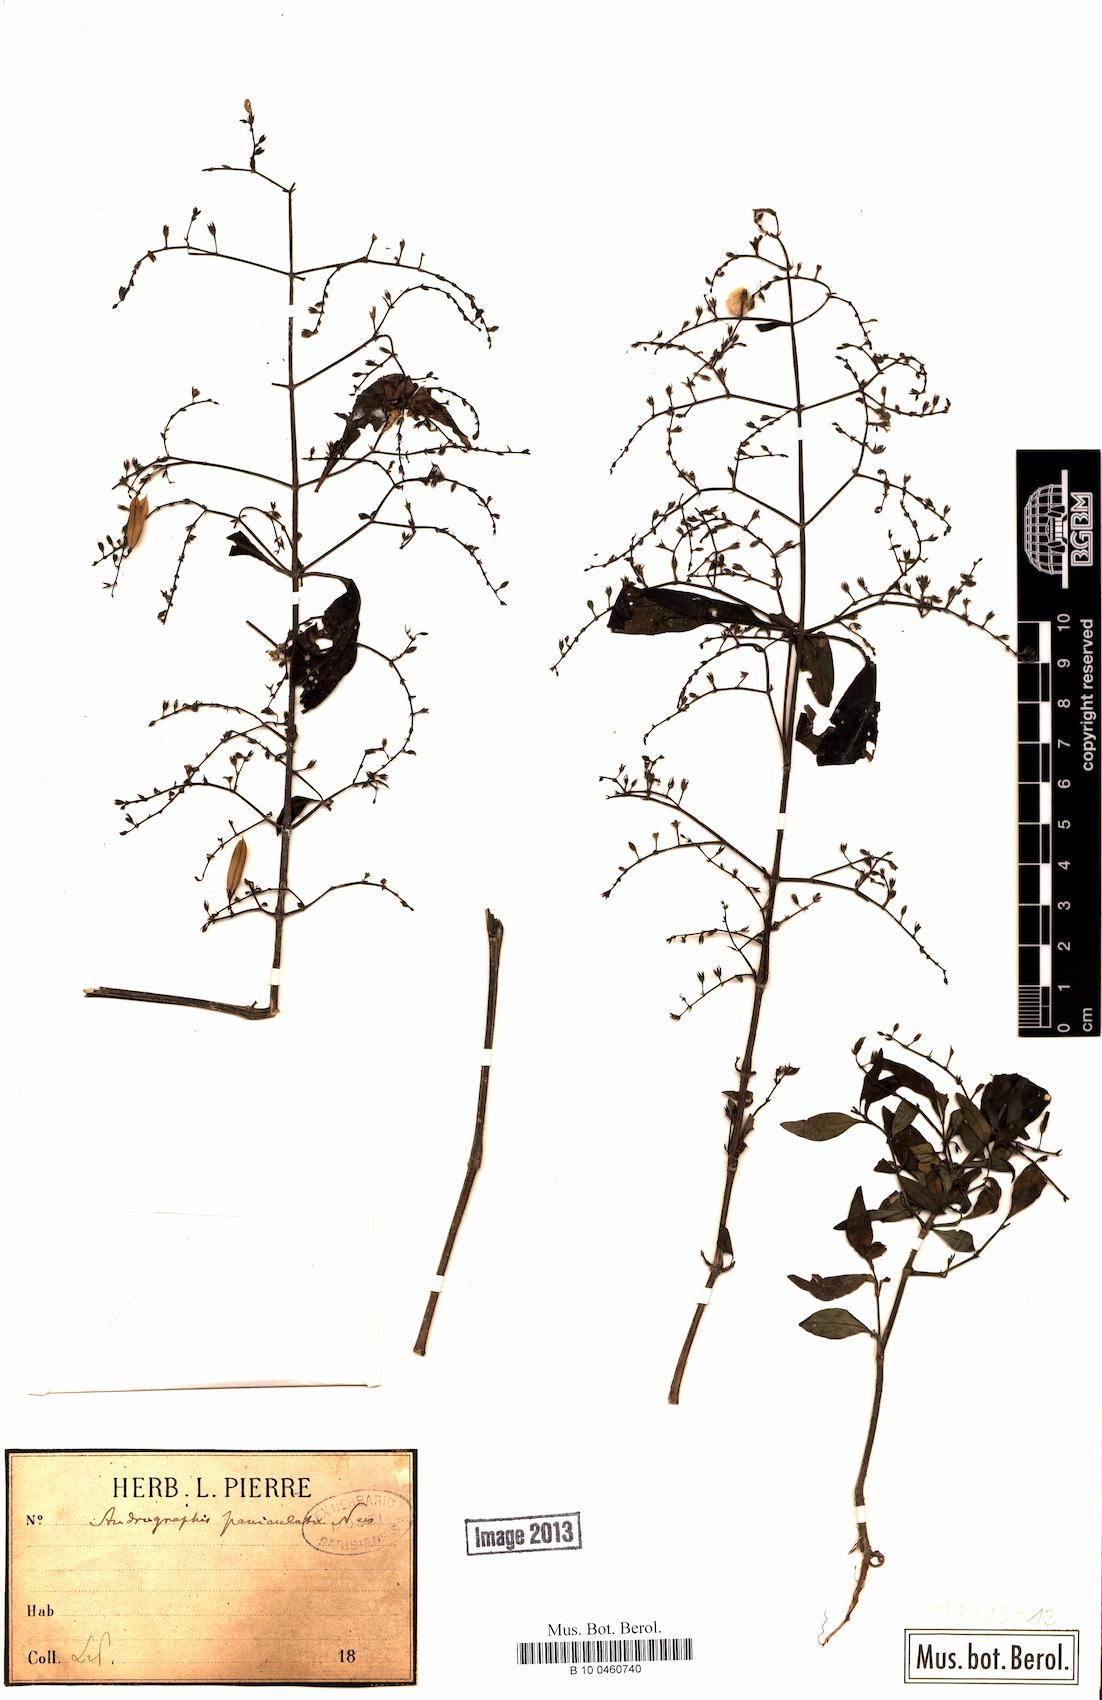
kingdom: Plantae
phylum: Tracheophyta
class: Magnoliopsida
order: Lamiales
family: Acanthaceae
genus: Andrographis
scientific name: Andrographis paniculata
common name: Green chireta
